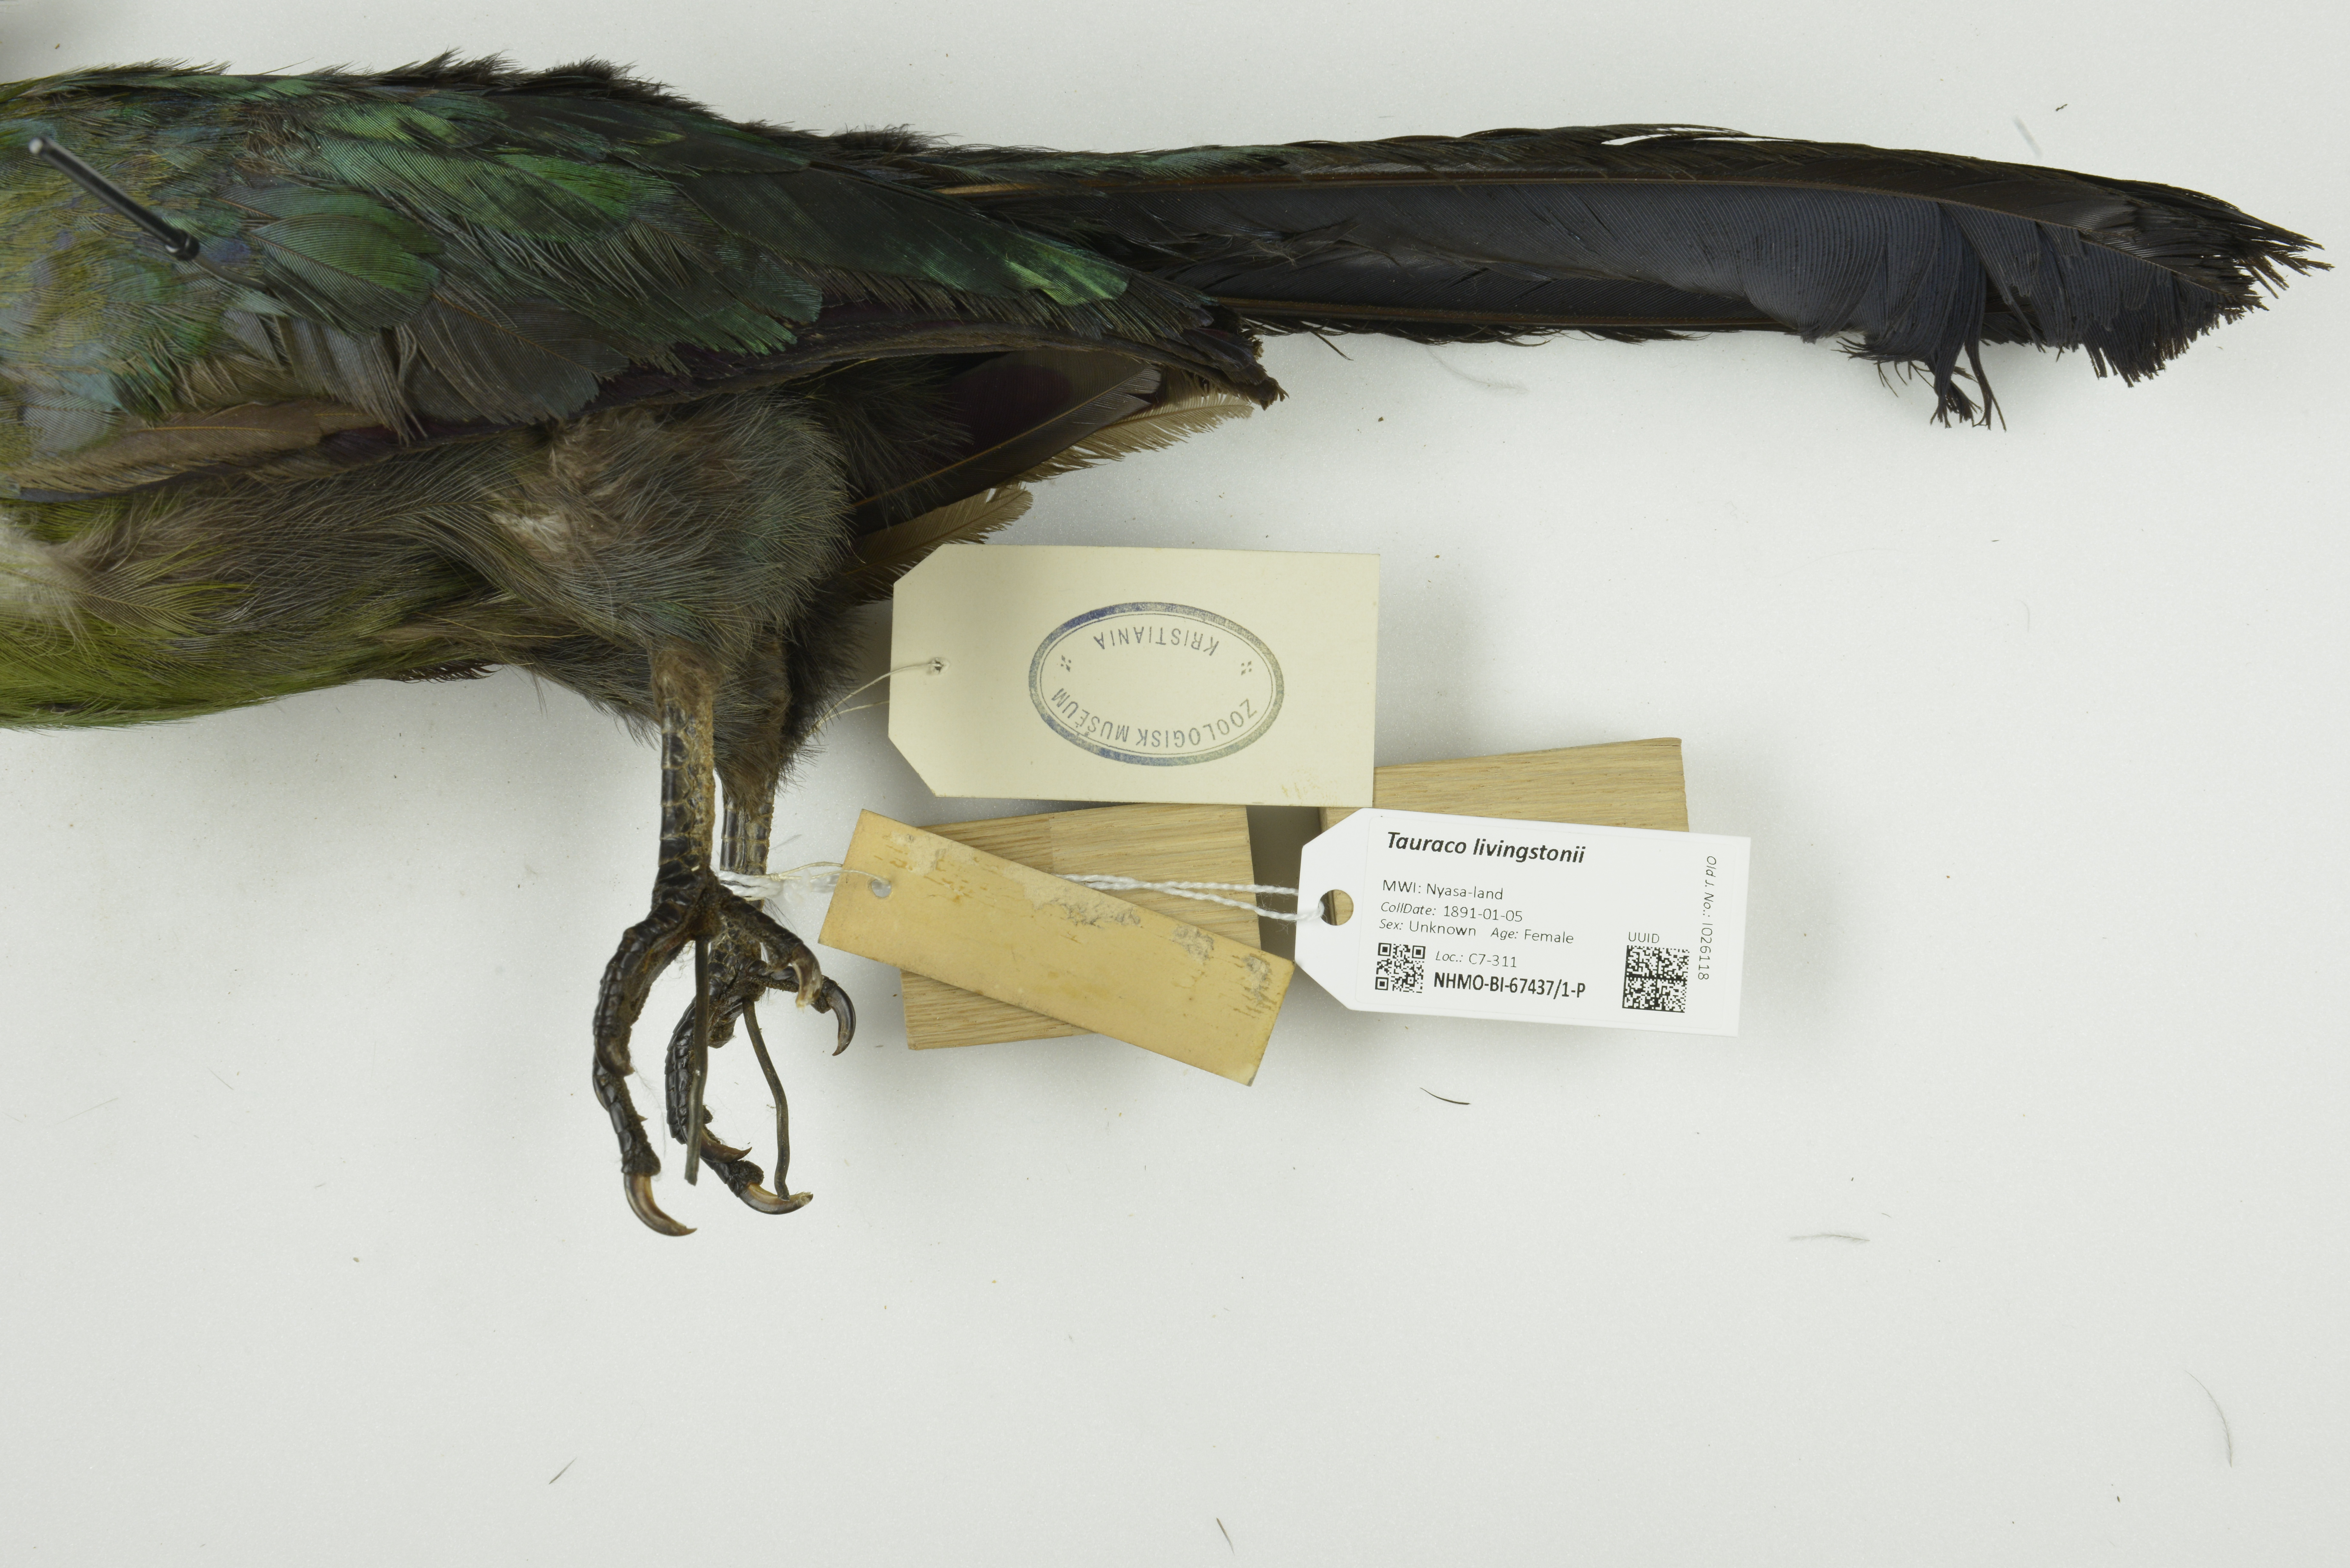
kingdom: Animalia
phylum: Chordata
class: Aves
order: Musophagiformes
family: Musophagidae
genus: Tauraco
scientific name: Tauraco livingstonii
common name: Livingstone's turaco
